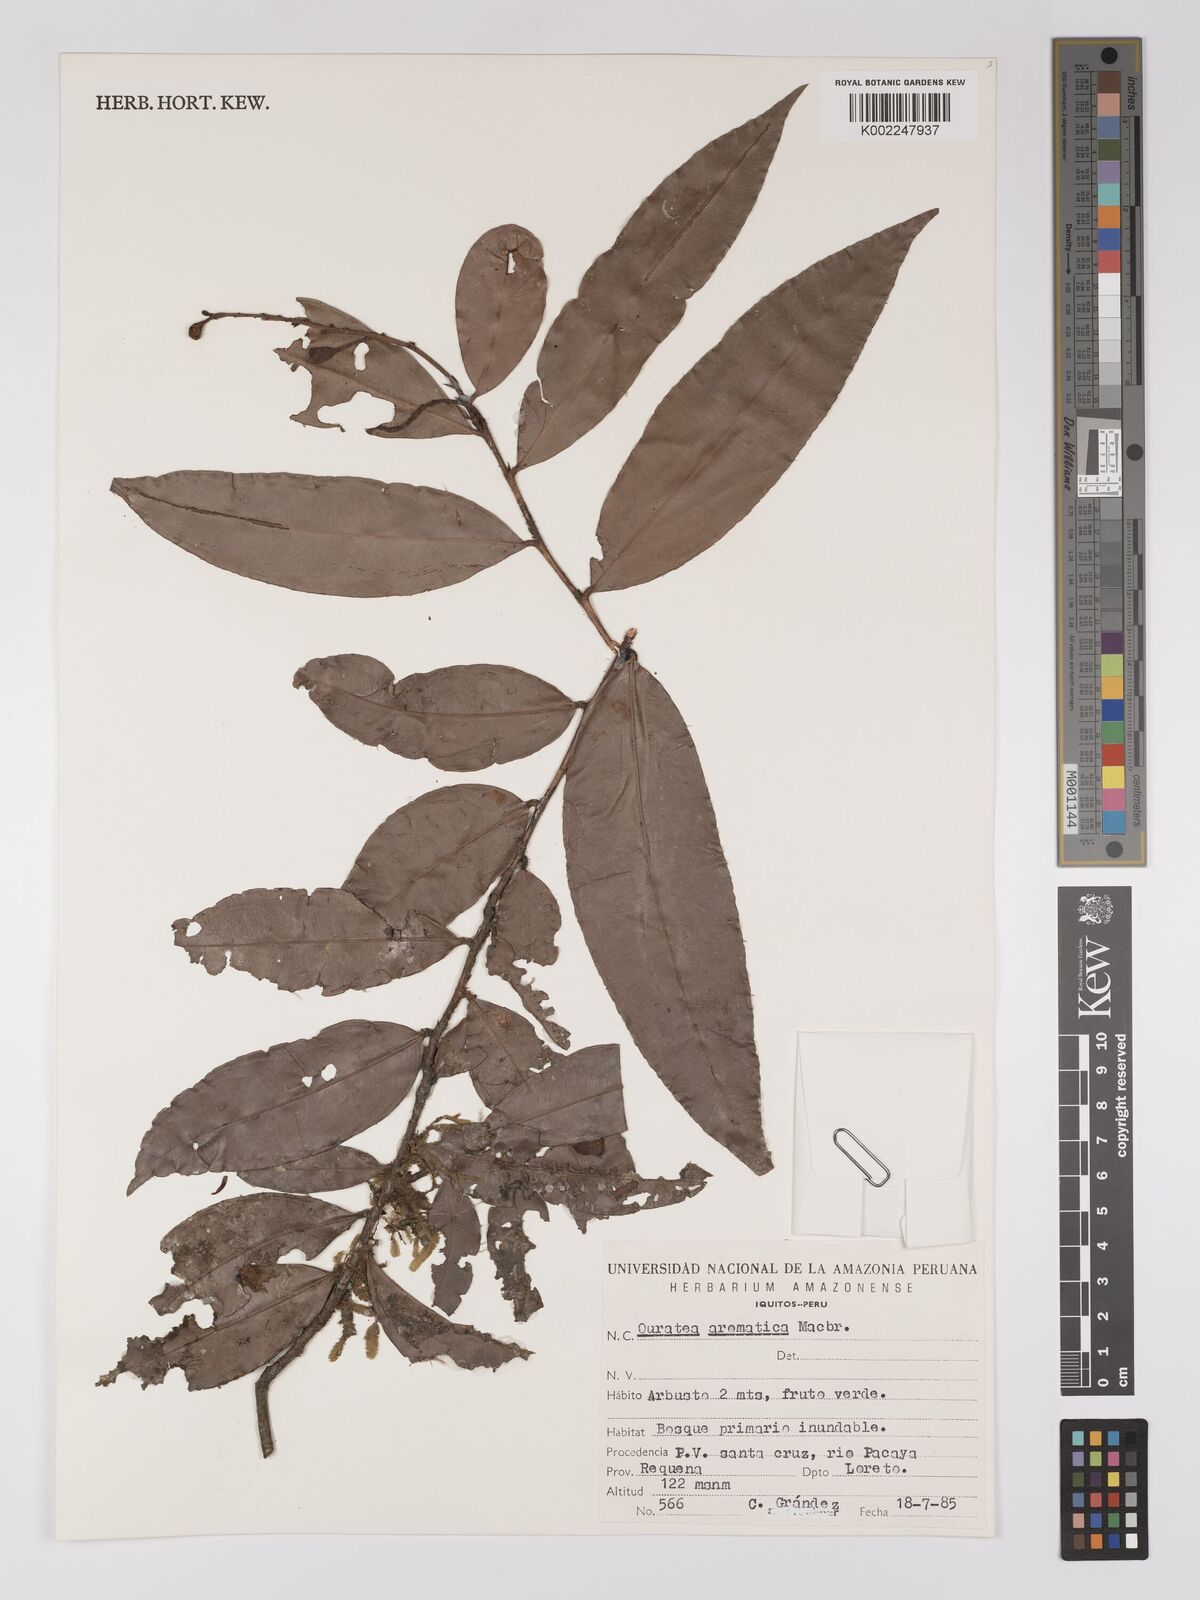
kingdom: Plantae
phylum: Tracheophyta
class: Magnoliopsida
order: Malpighiales
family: Ochnaceae
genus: Ouratea
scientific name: Ouratea aromatica
